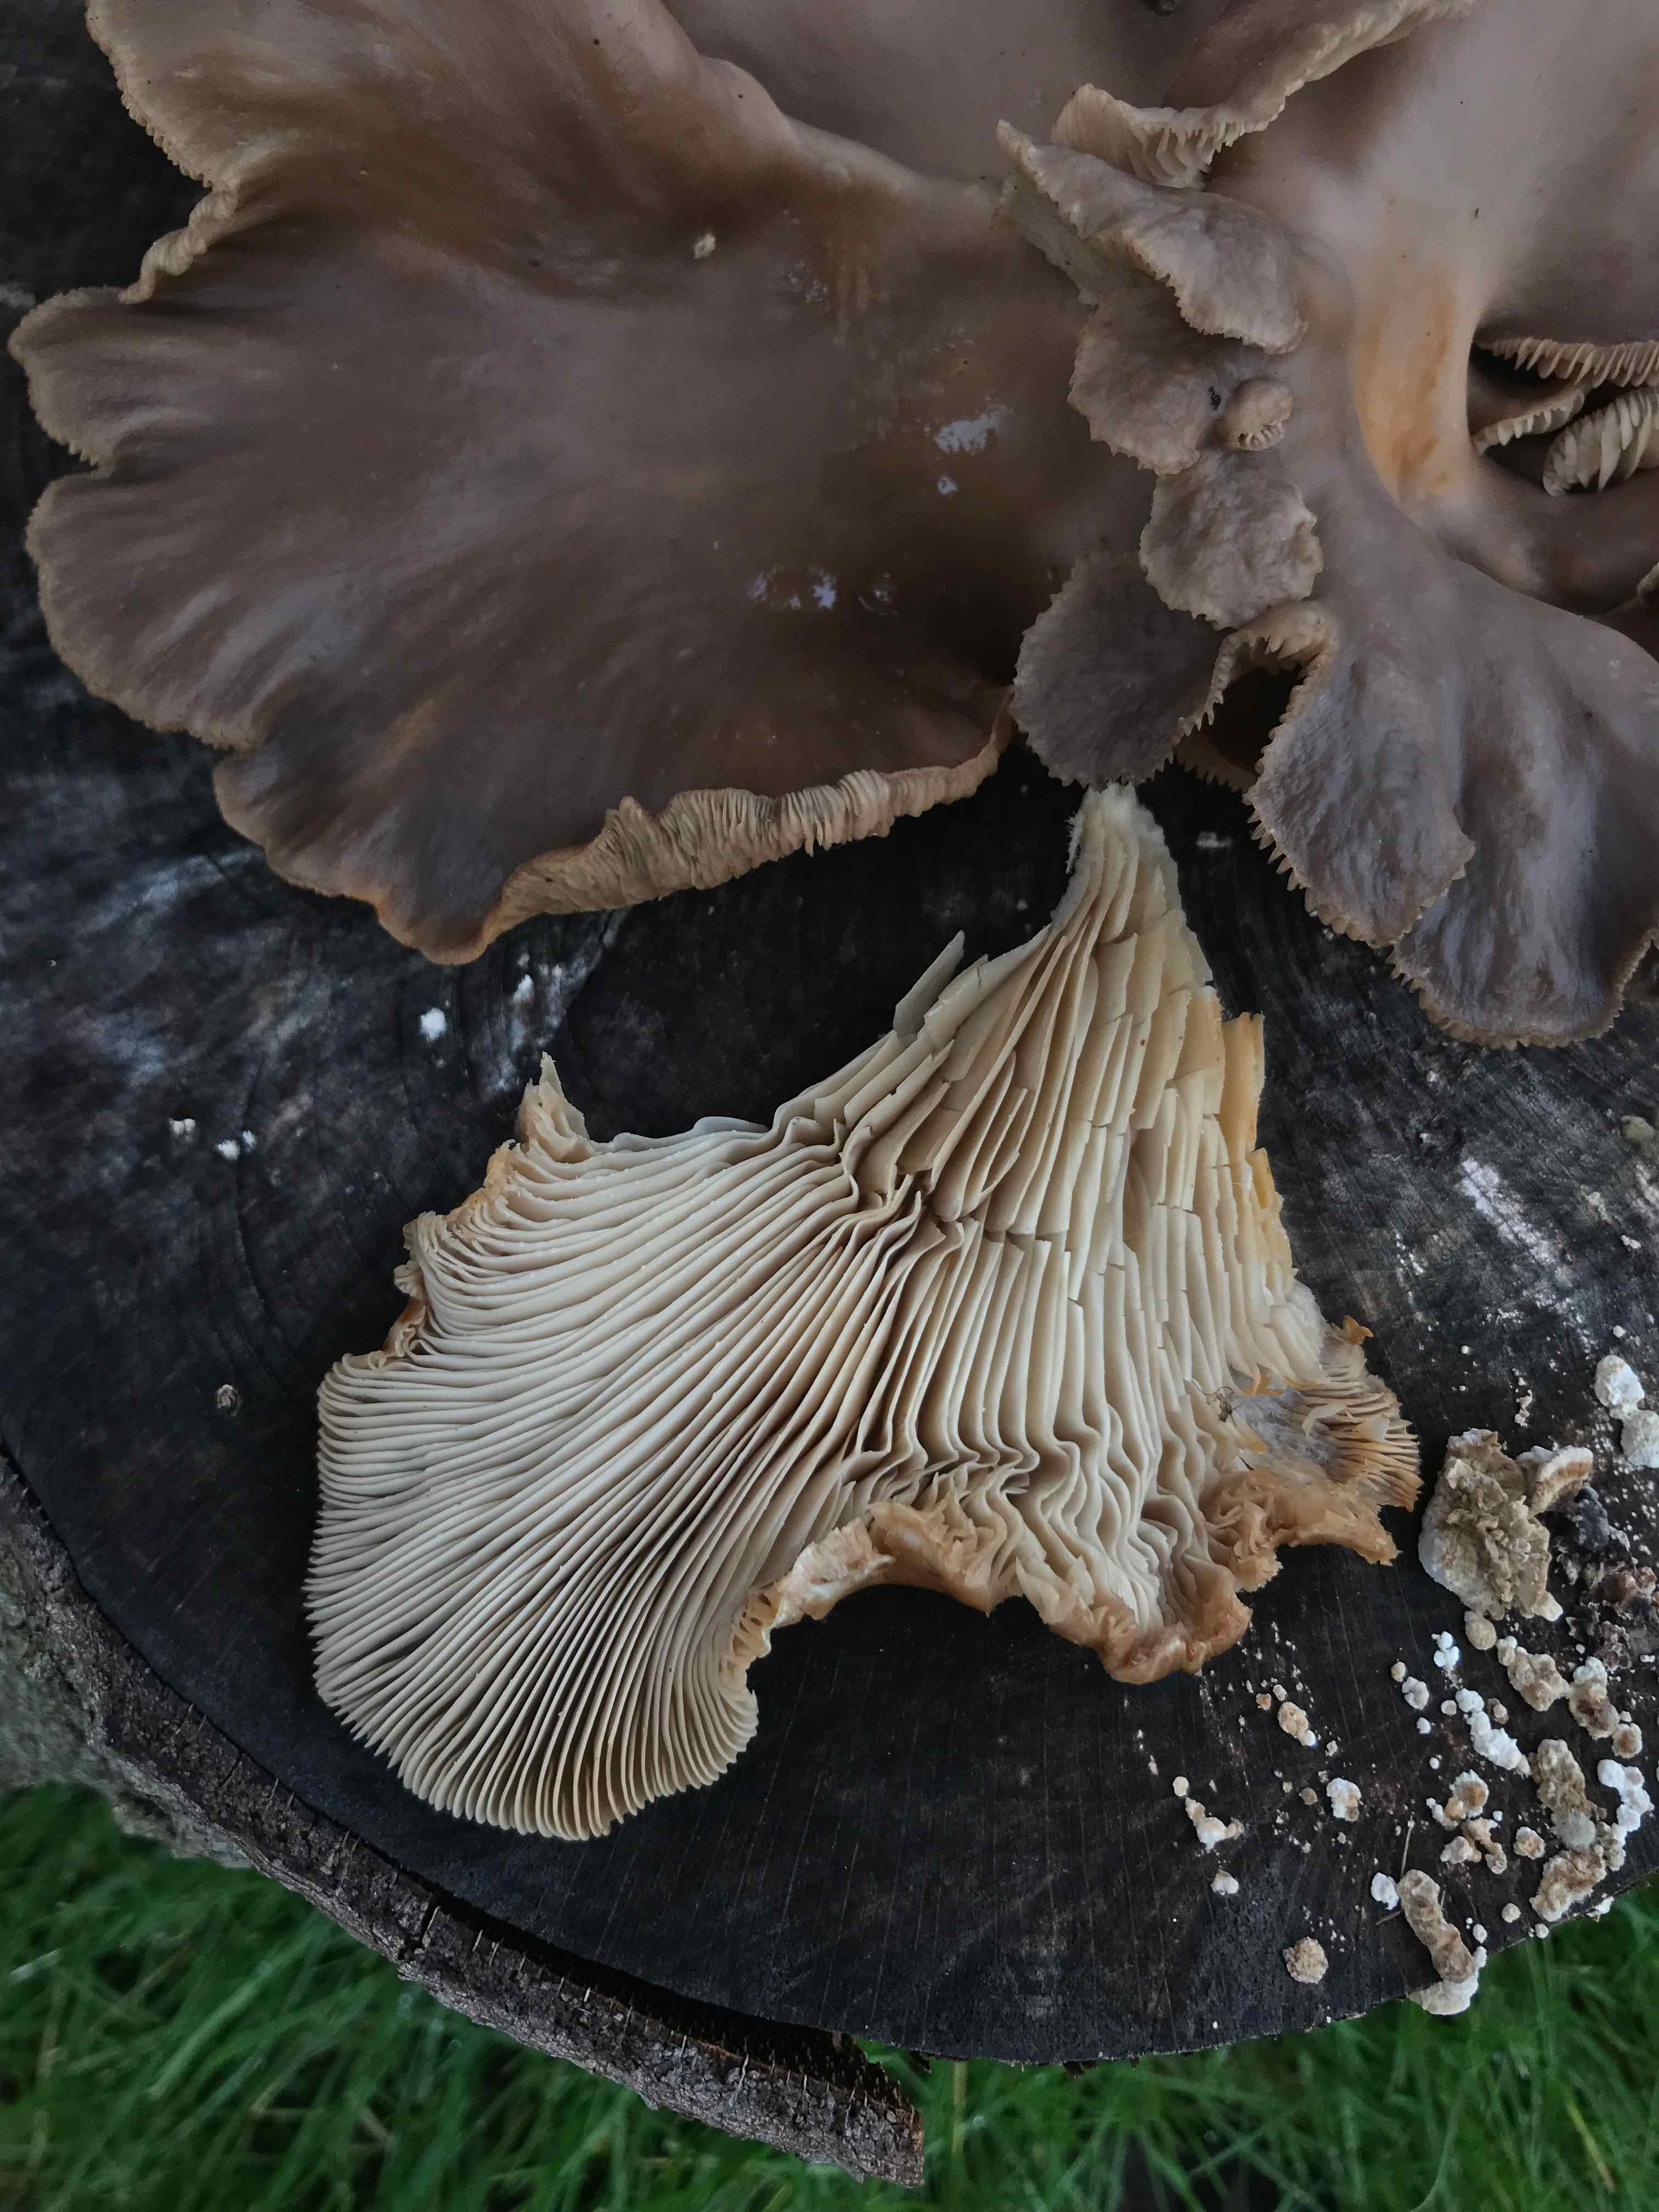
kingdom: Fungi
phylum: Basidiomycota
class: Agaricomycetes
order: Agaricales
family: Pleurotaceae
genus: Pleurotus
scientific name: Pleurotus ostreatus
